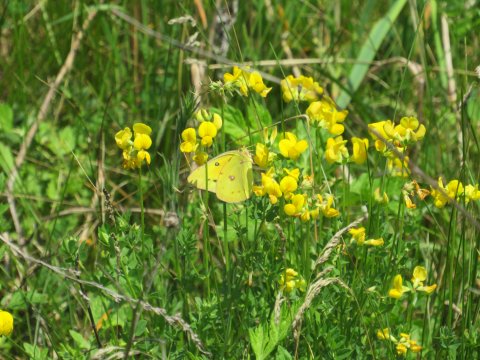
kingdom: Animalia
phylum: Arthropoda
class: Insecta
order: Lepidoptera
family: Pieridae
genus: Colias
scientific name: Colias eurytheme
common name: Orange Sulphur
